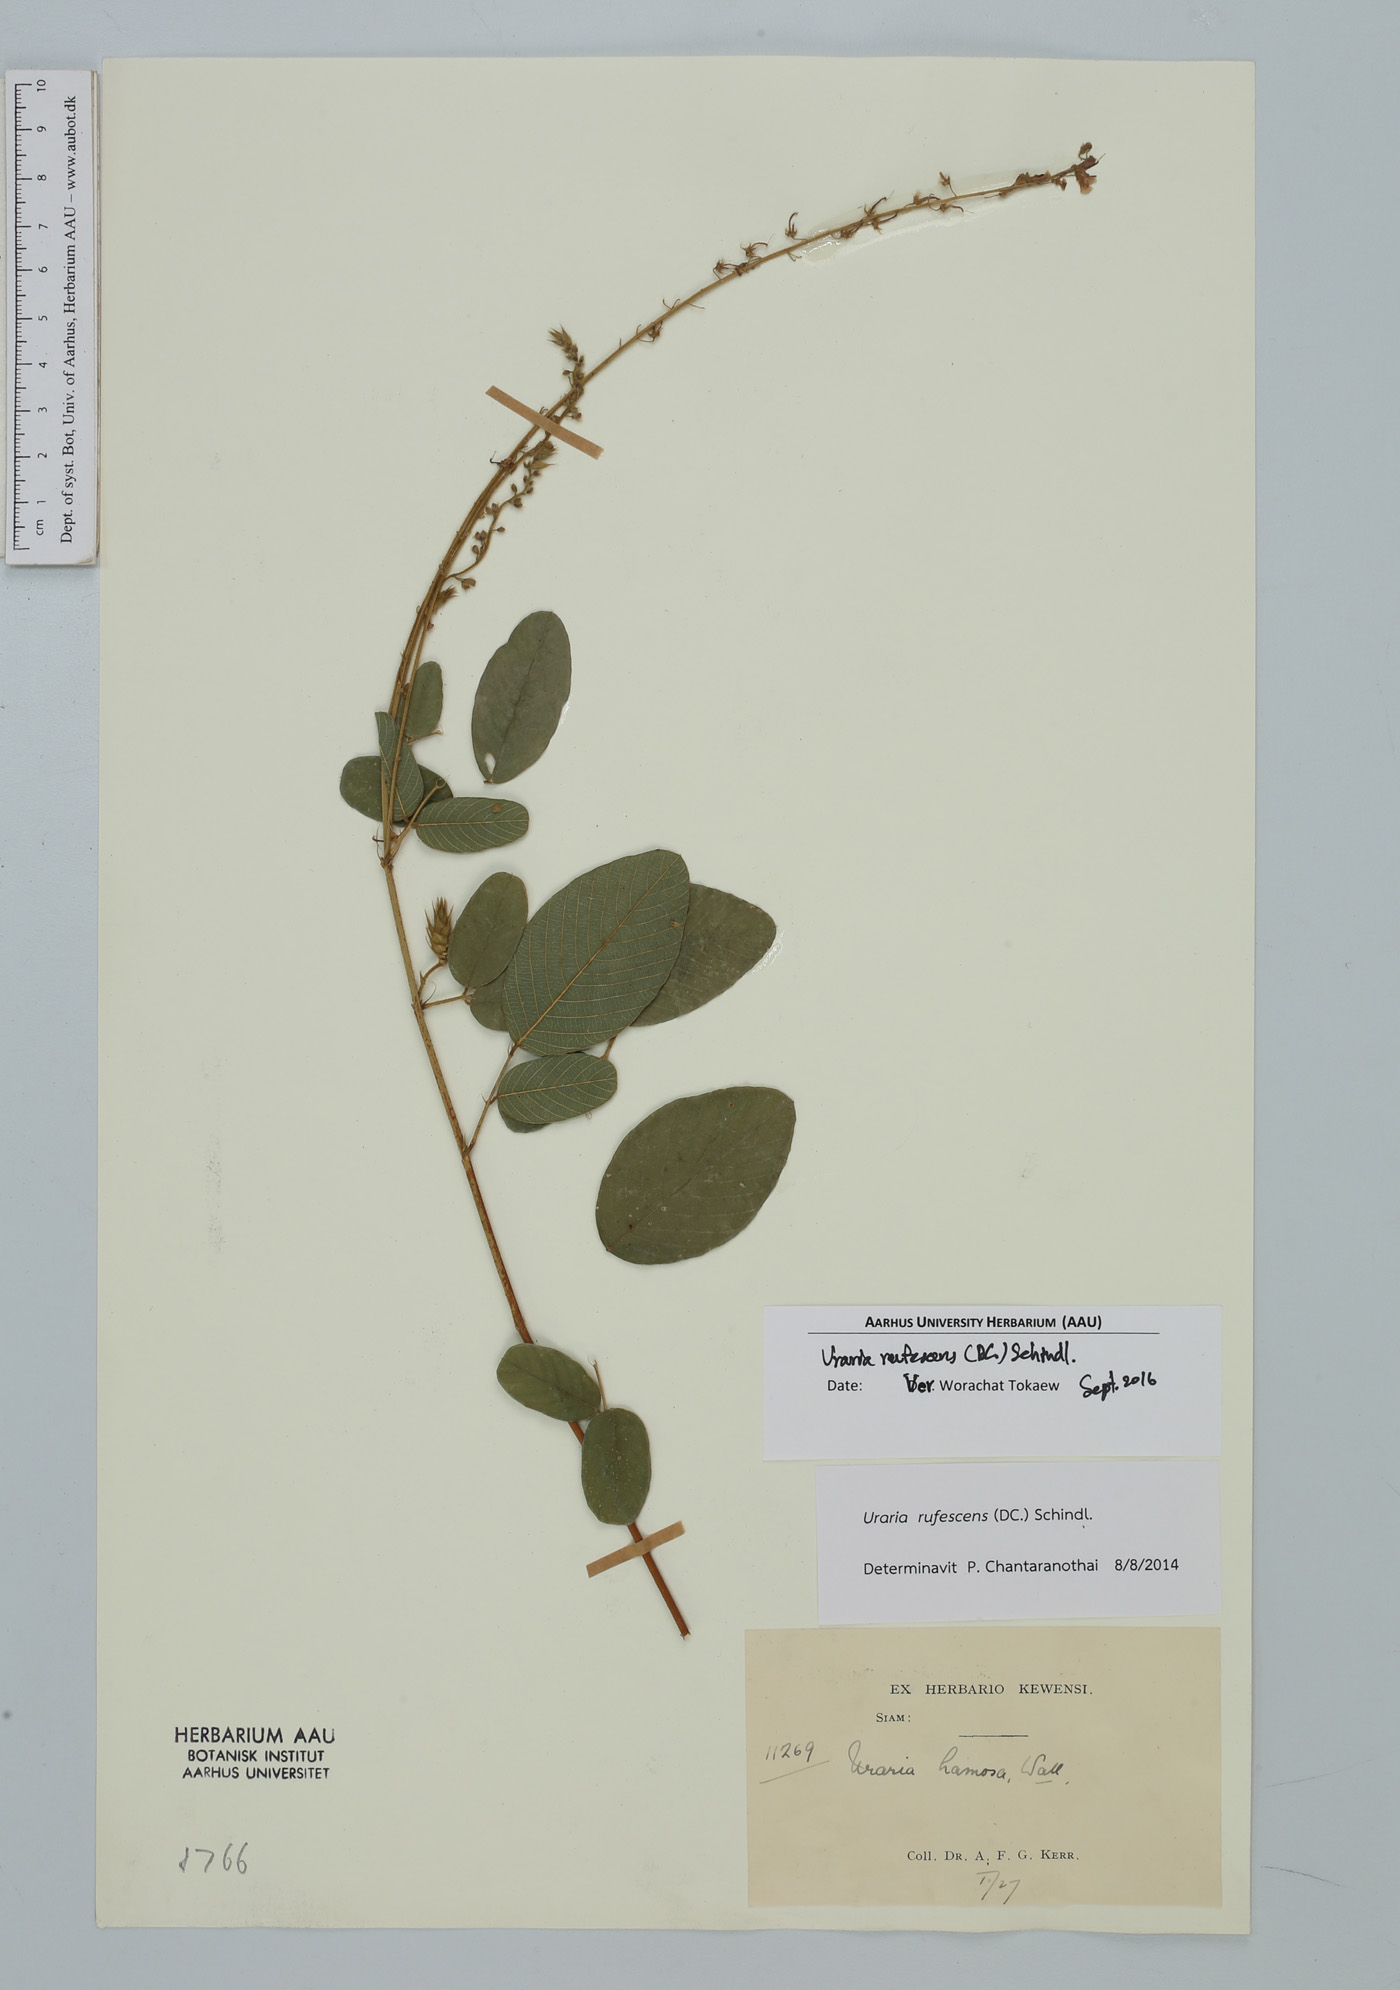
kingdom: Plantae
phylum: Tracheophyta
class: Magnoliopsida
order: Fabales
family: Fabaceae
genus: Uraria
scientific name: Uraria rufescens
